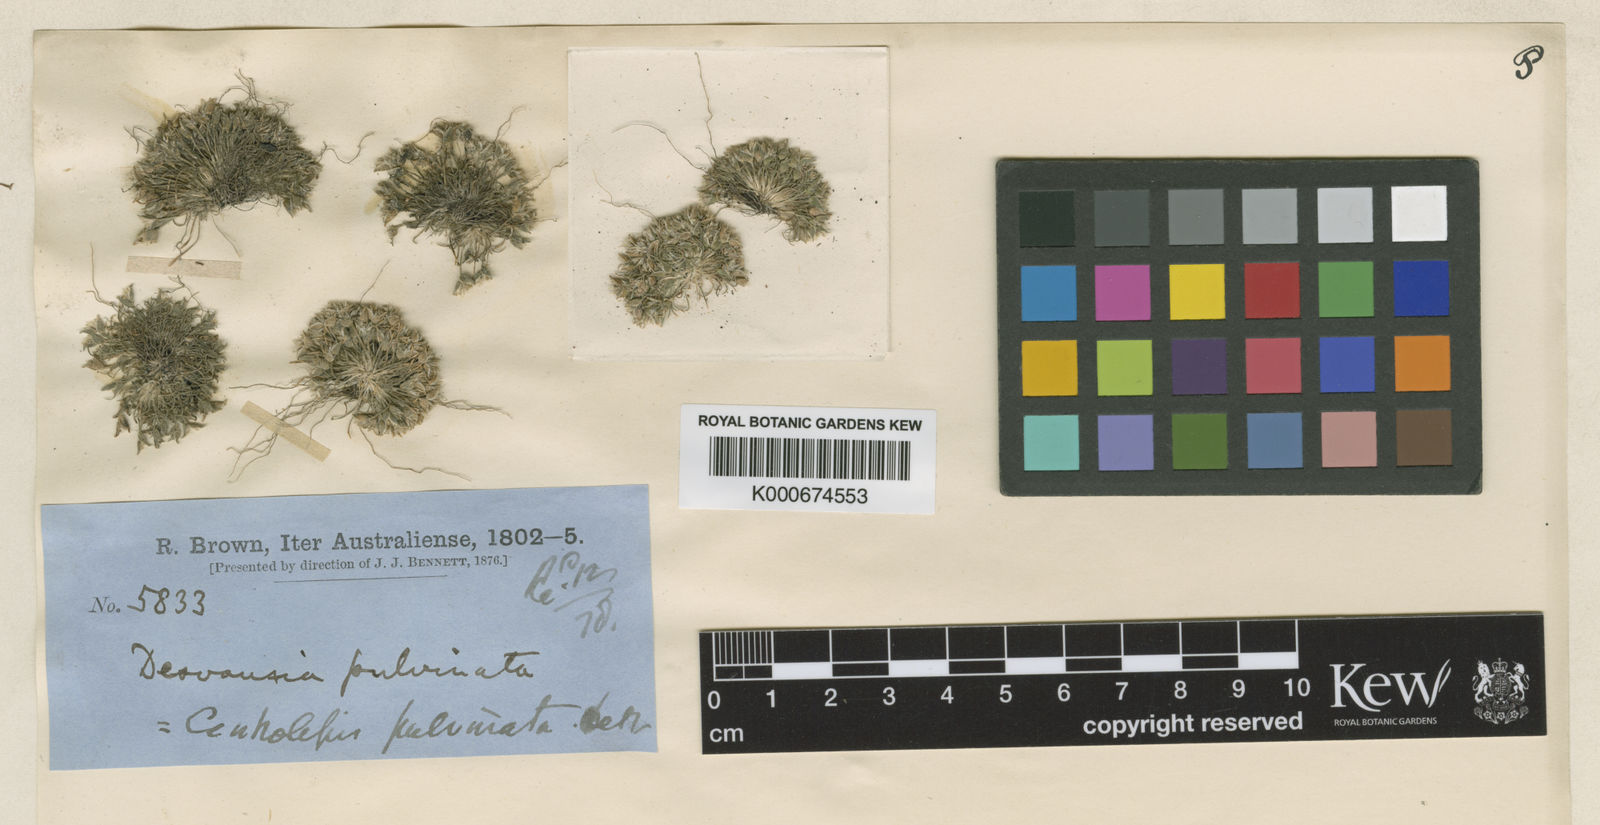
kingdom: Plantae
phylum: Tracheophyta
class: Liliopsida
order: Poales
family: Restionaceae
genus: Centrolepis
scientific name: Centrolepis strigosa
